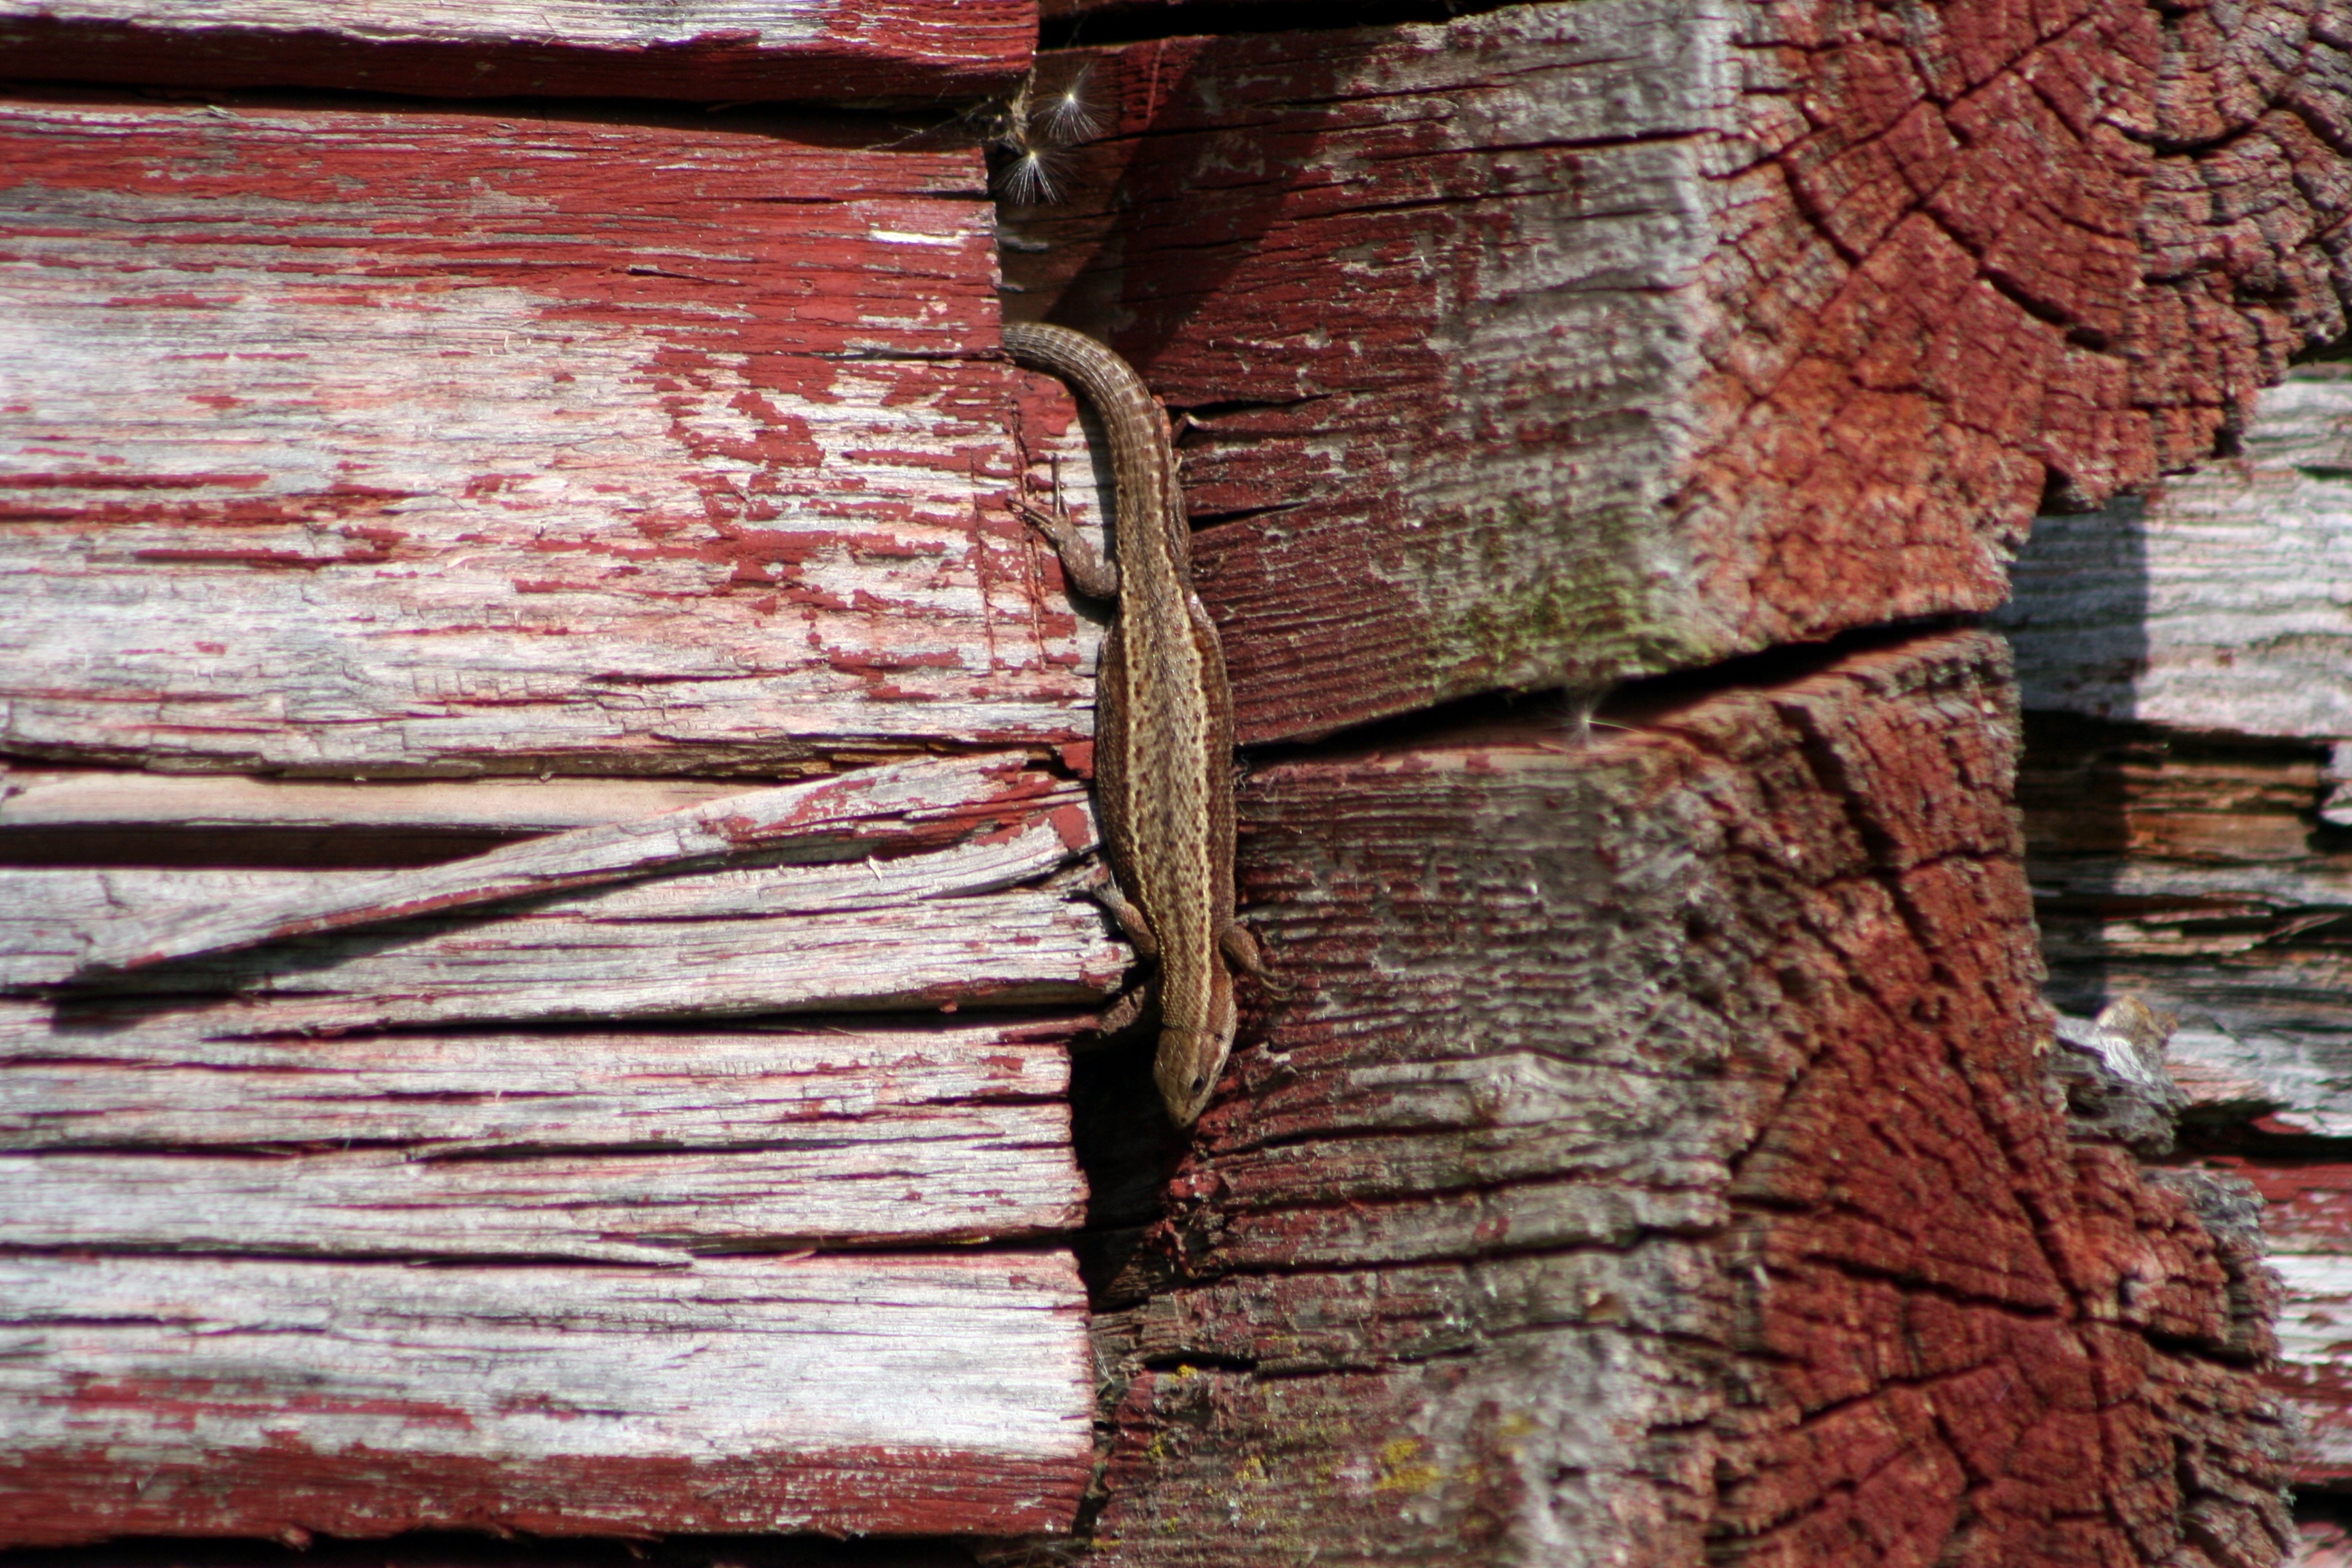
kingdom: Animalia
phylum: Chordata
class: Squamata
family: Lacertidae
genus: Zootoca
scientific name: Zootoca vivipara
